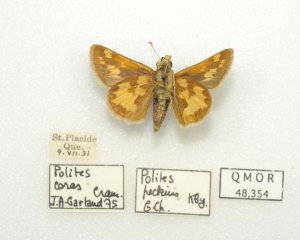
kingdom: Animalia
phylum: Arthropoda
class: Insecta
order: Lepidoptera
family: Hesperiidae
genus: Polites
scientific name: Polites coras
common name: Peck's Skipper
